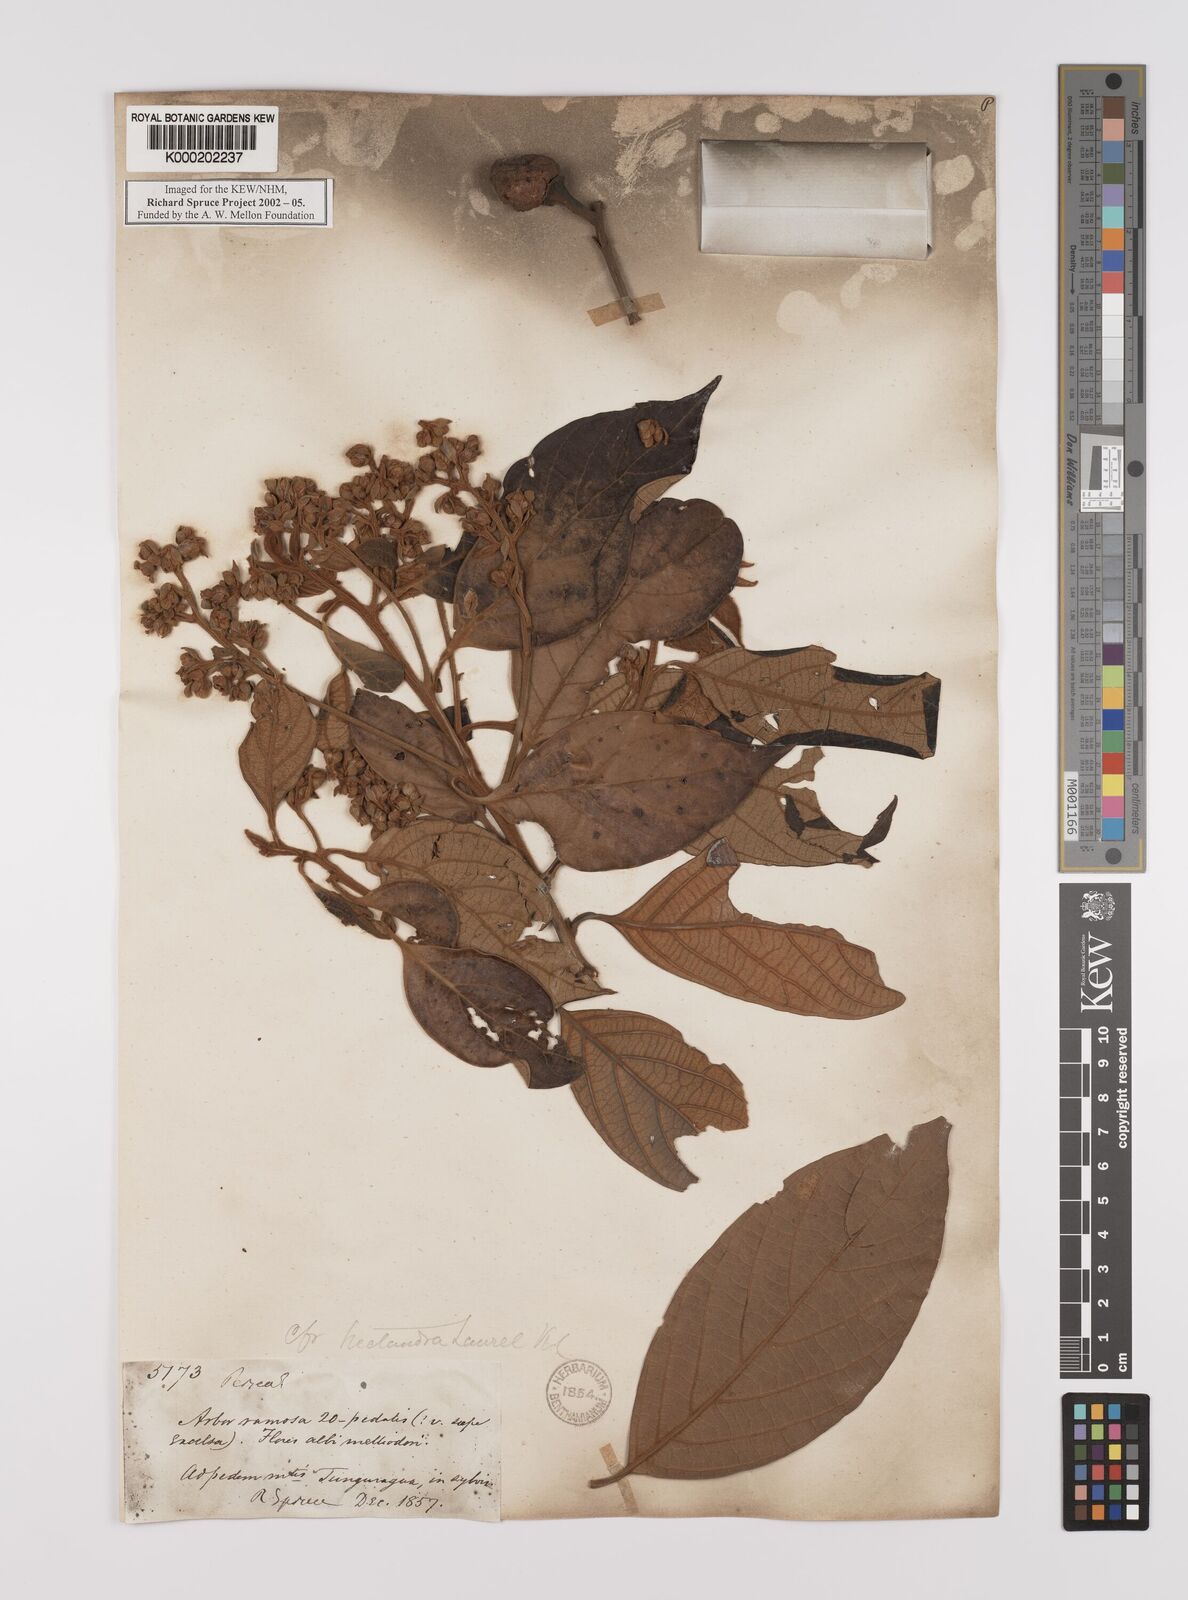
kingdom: Plantae
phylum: Tracheophyta
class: Magnoliopsida
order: Laurales
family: Lauraceae
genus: Nectandra
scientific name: Nectandra laurel
